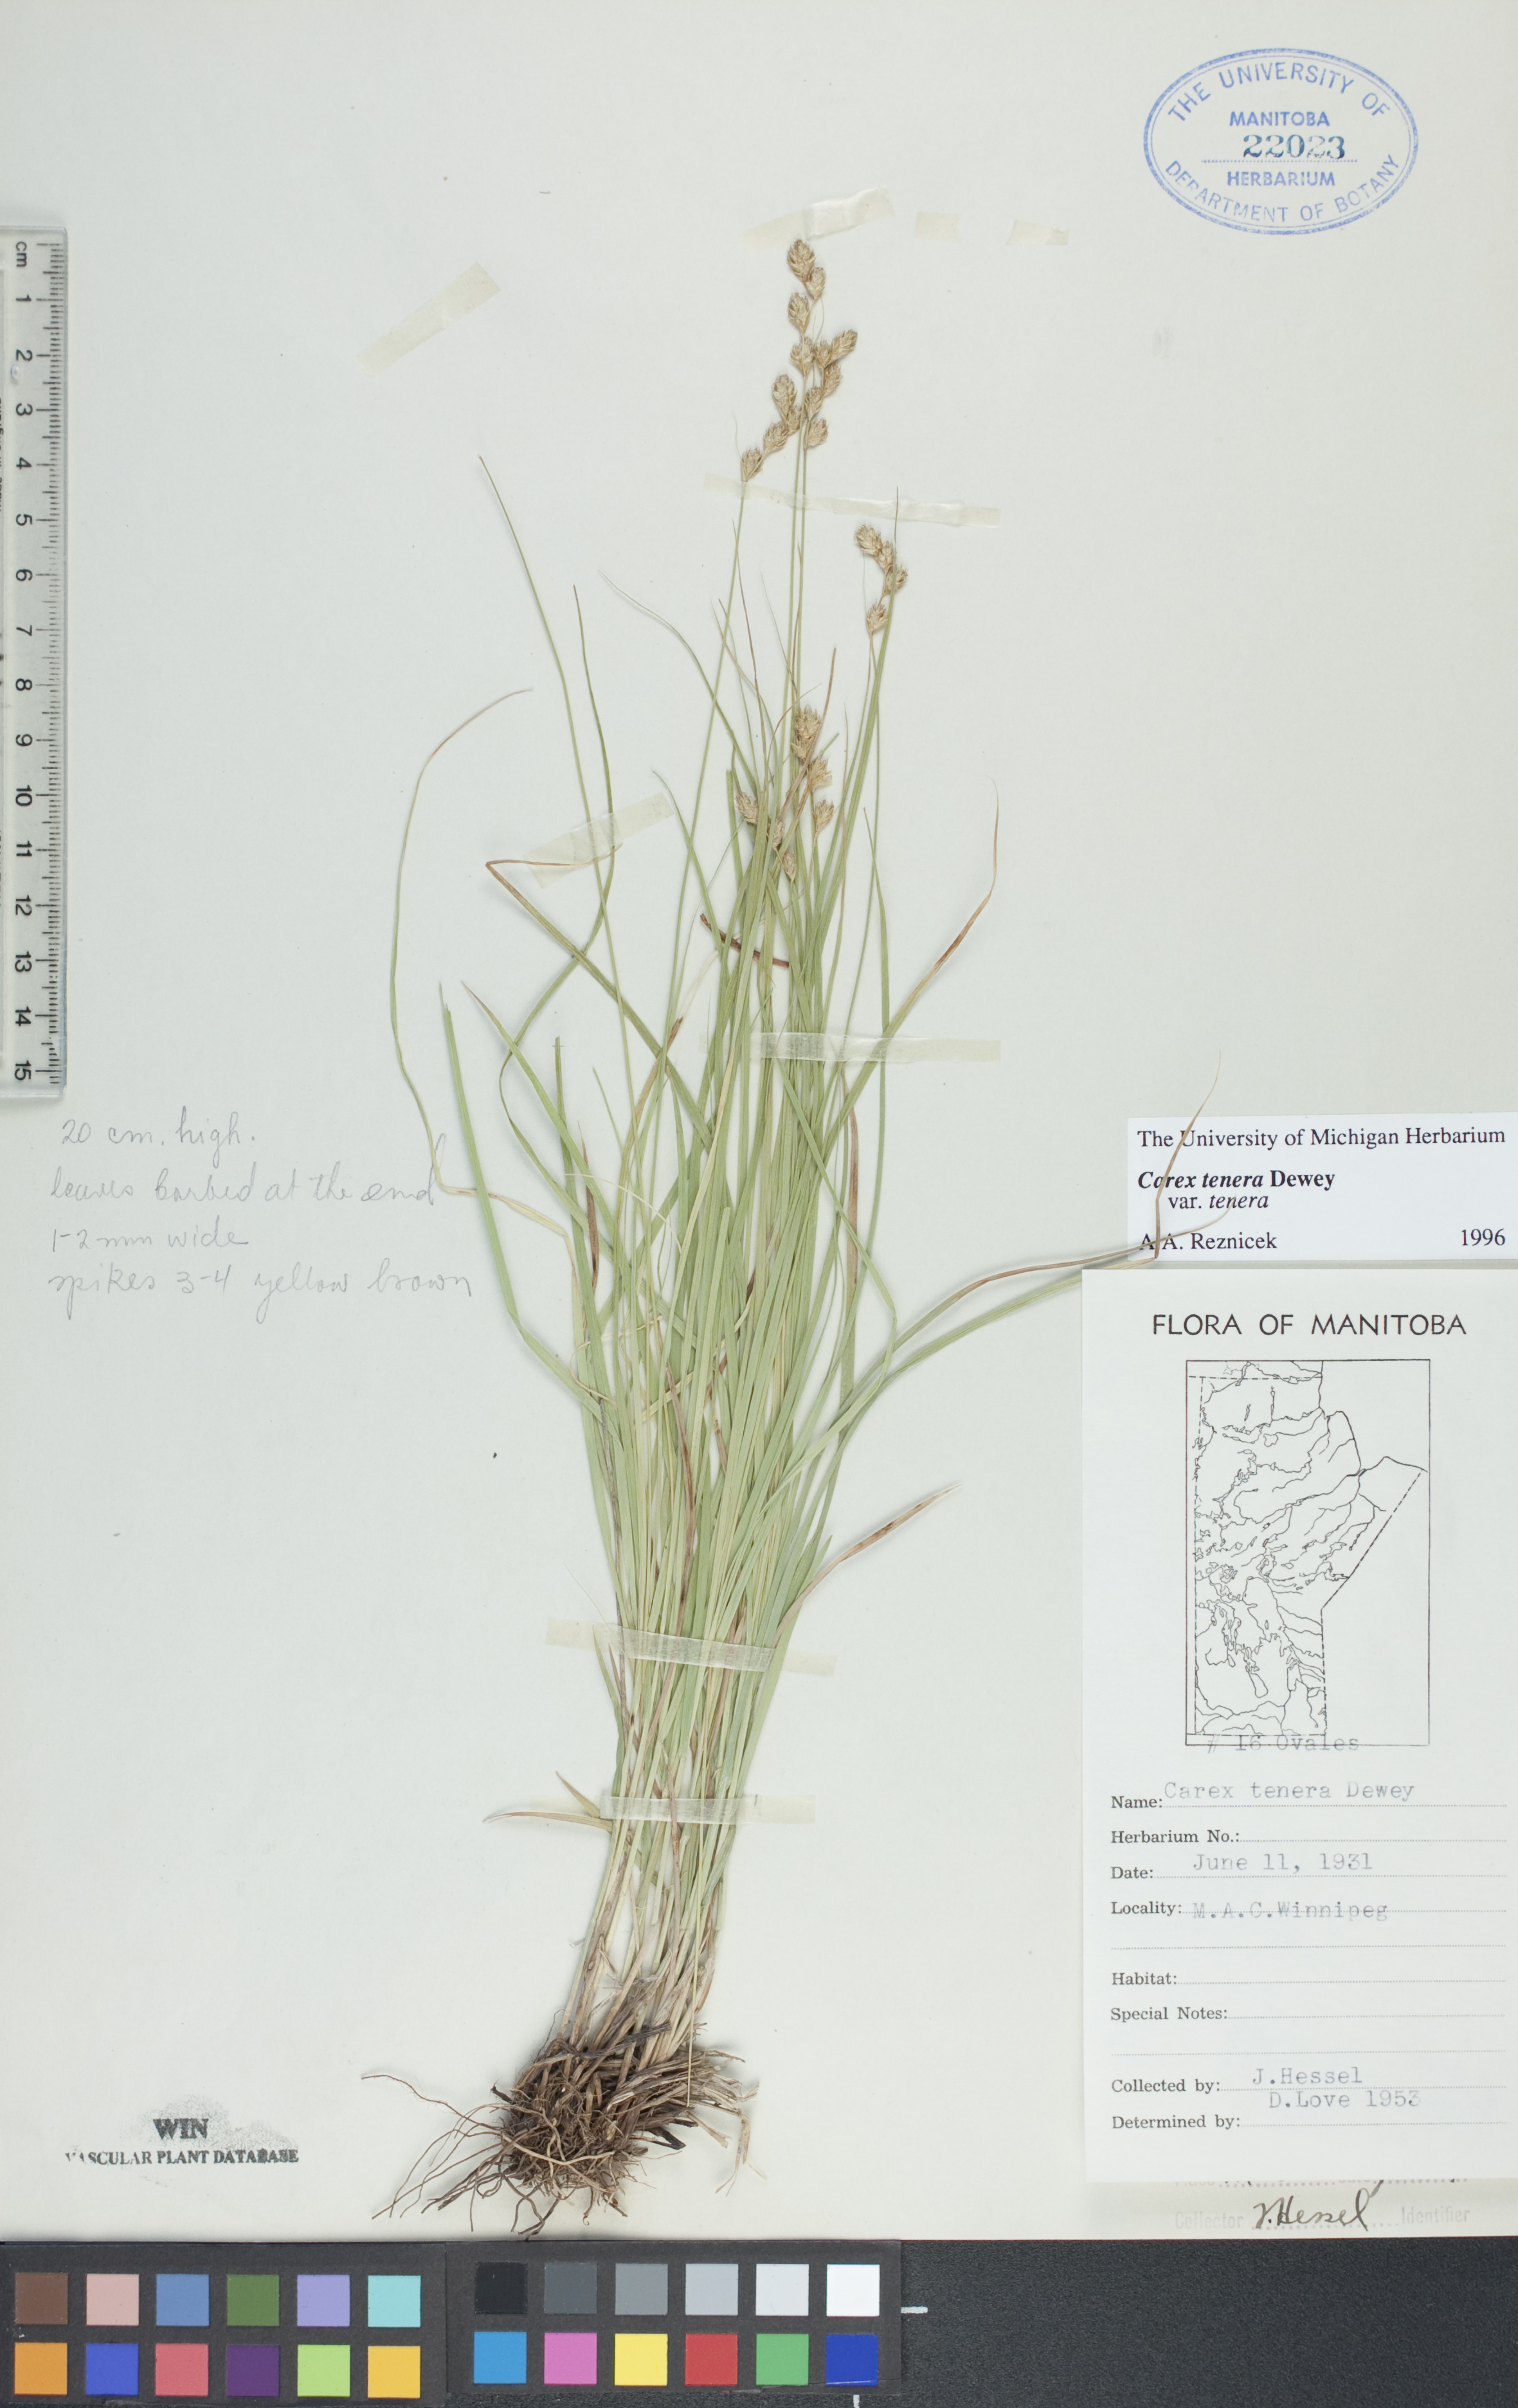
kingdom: Plantae
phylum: Tracheophyta
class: Liliopsida
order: Poales
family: Cyperaceae
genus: Carex
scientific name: Carex tenera
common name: Broad-fruited sedge
